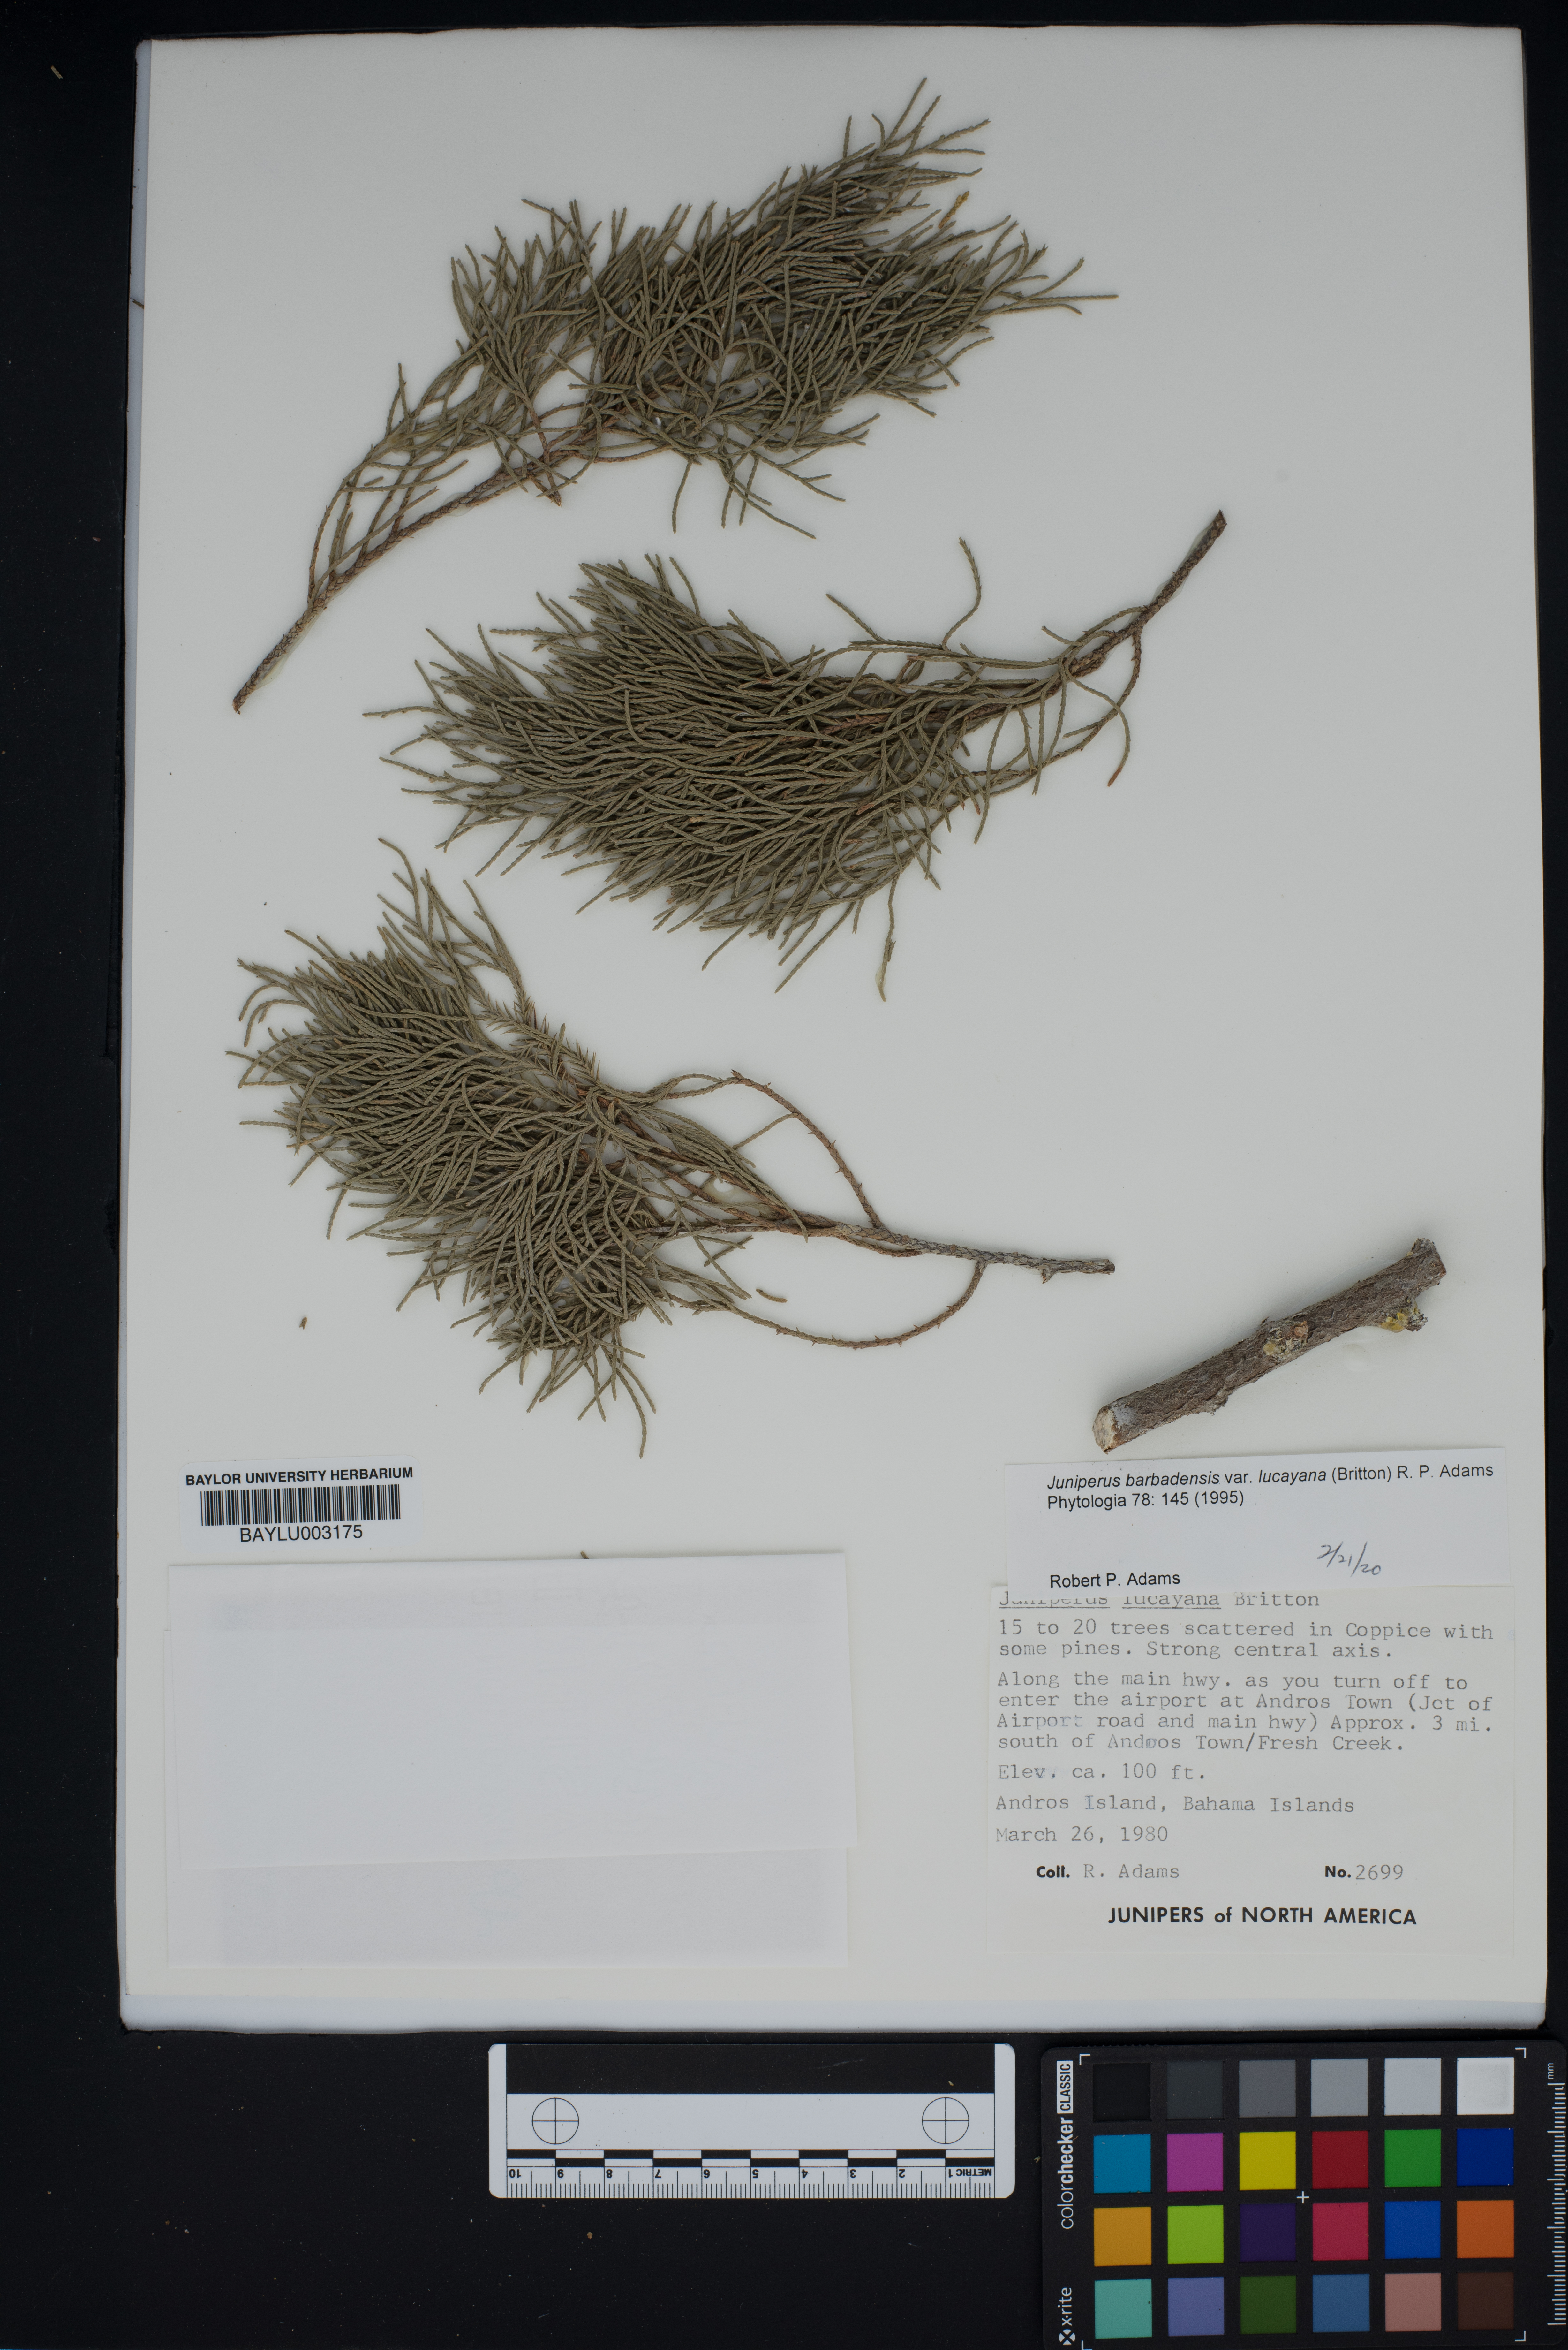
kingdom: Plantae
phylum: Tracheophyta
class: Pinopsida
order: Pinales
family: Cupressaceae
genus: Juniperus
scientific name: Juniperus barbadensis
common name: West indies juniper
